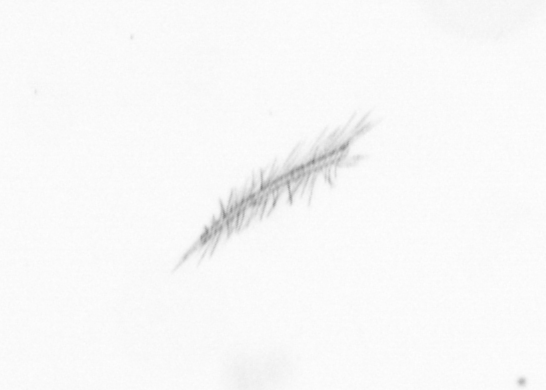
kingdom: Chromista
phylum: Ochrophyta
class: Bacillariophyceae
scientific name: Bacillariophyceae
